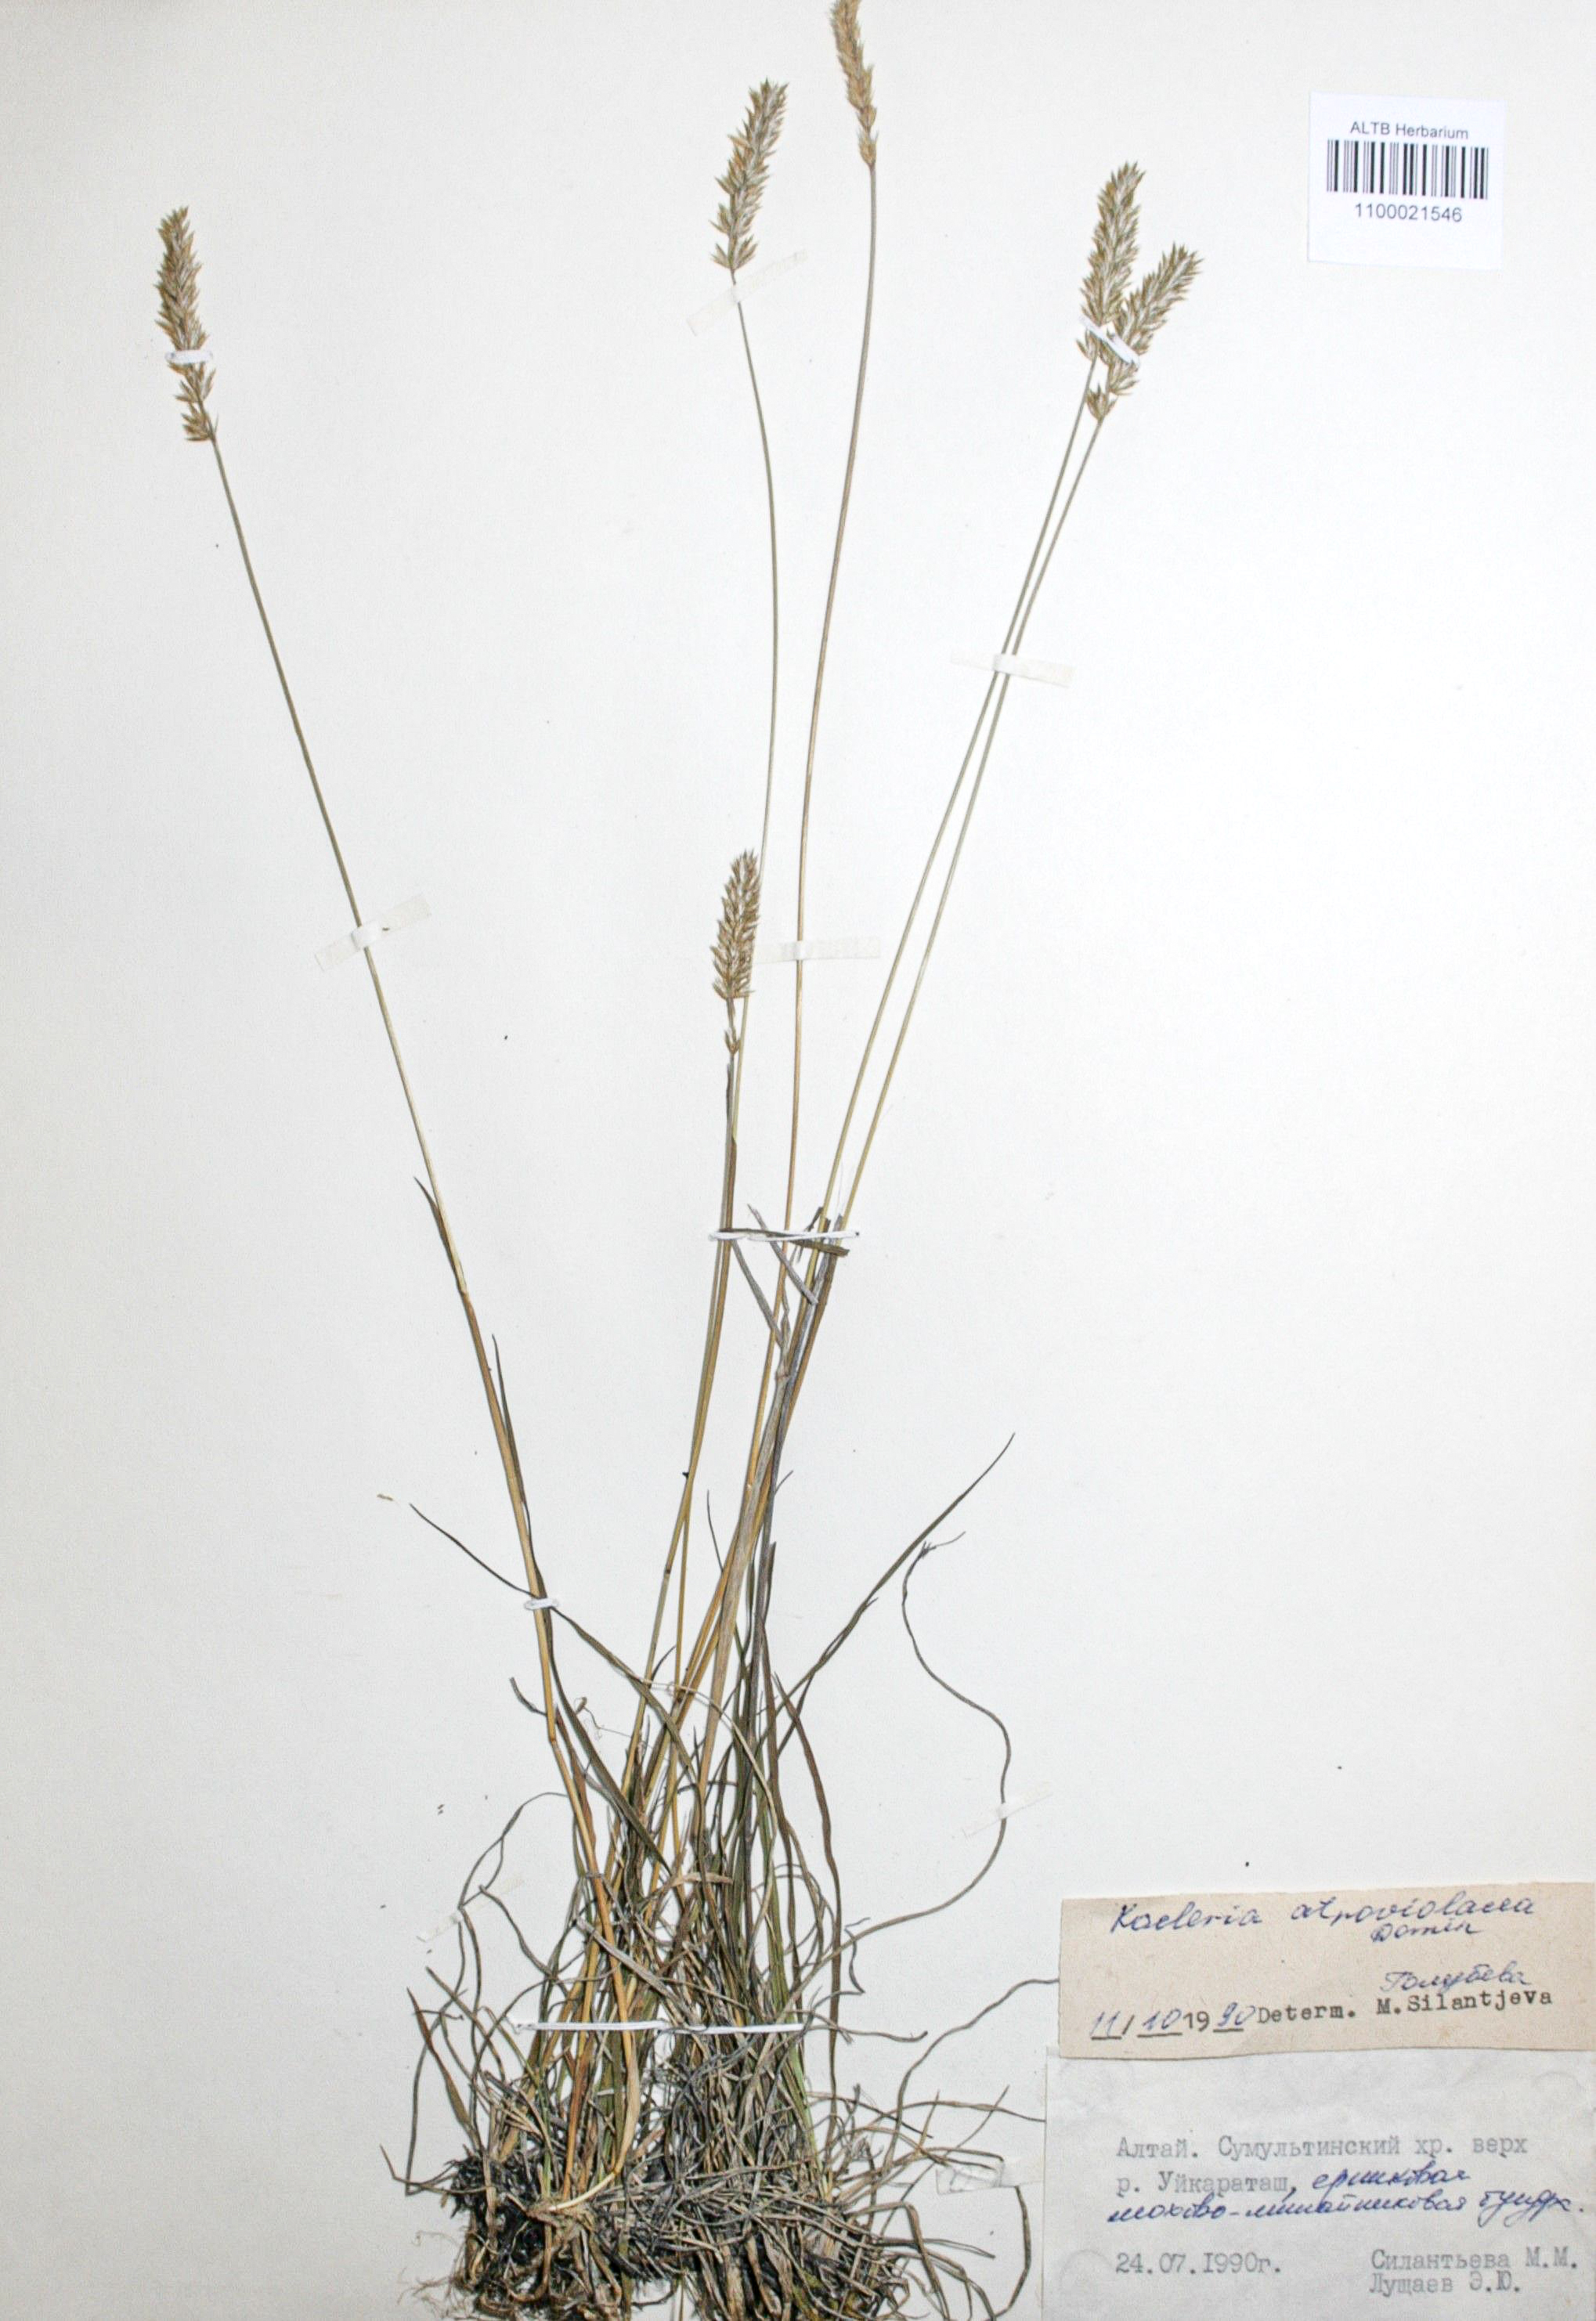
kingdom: Plantae
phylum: Tracheophyta
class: Liliopsida
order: Poales
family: Poaceae
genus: Koeleria
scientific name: Koeleria asiatica
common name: Eurasian junegrass
